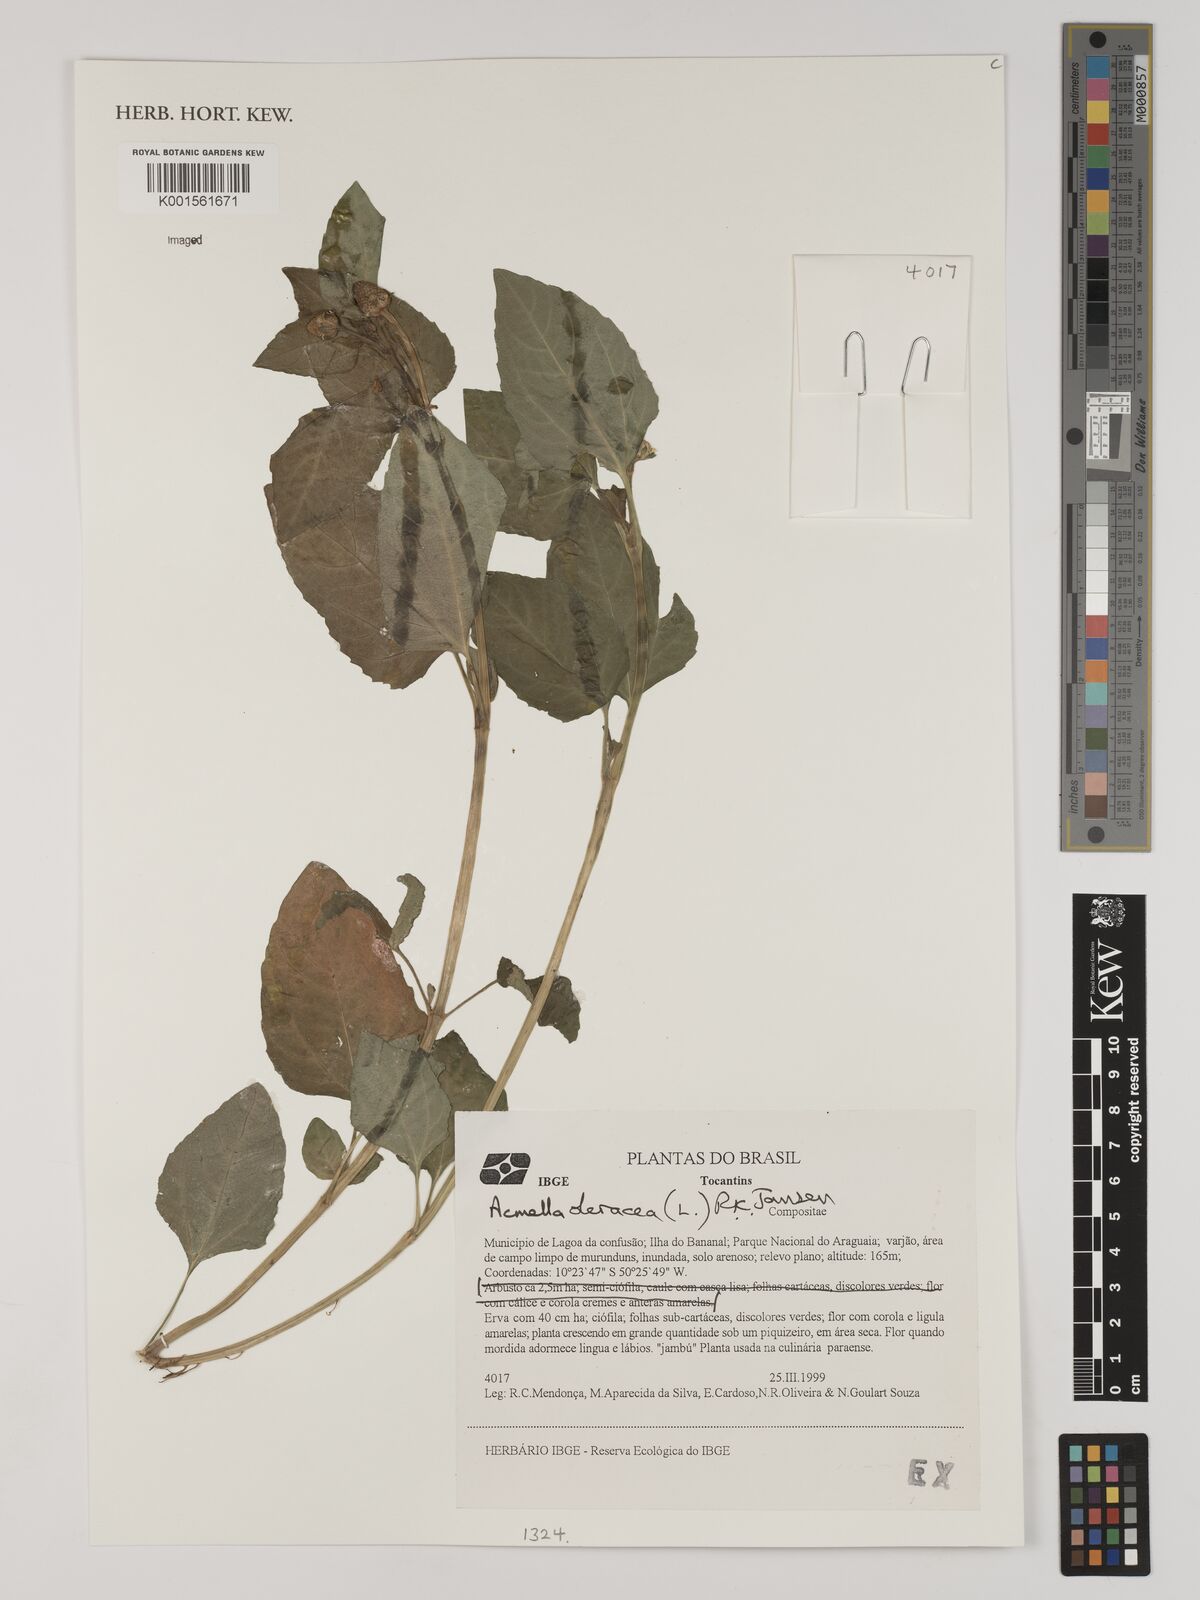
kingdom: Plantae
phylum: Tracheophyta
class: Magnoliopsida
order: Asterales
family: Asteraceae
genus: Acmella
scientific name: Acmella oleracea
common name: Brazilian cress
